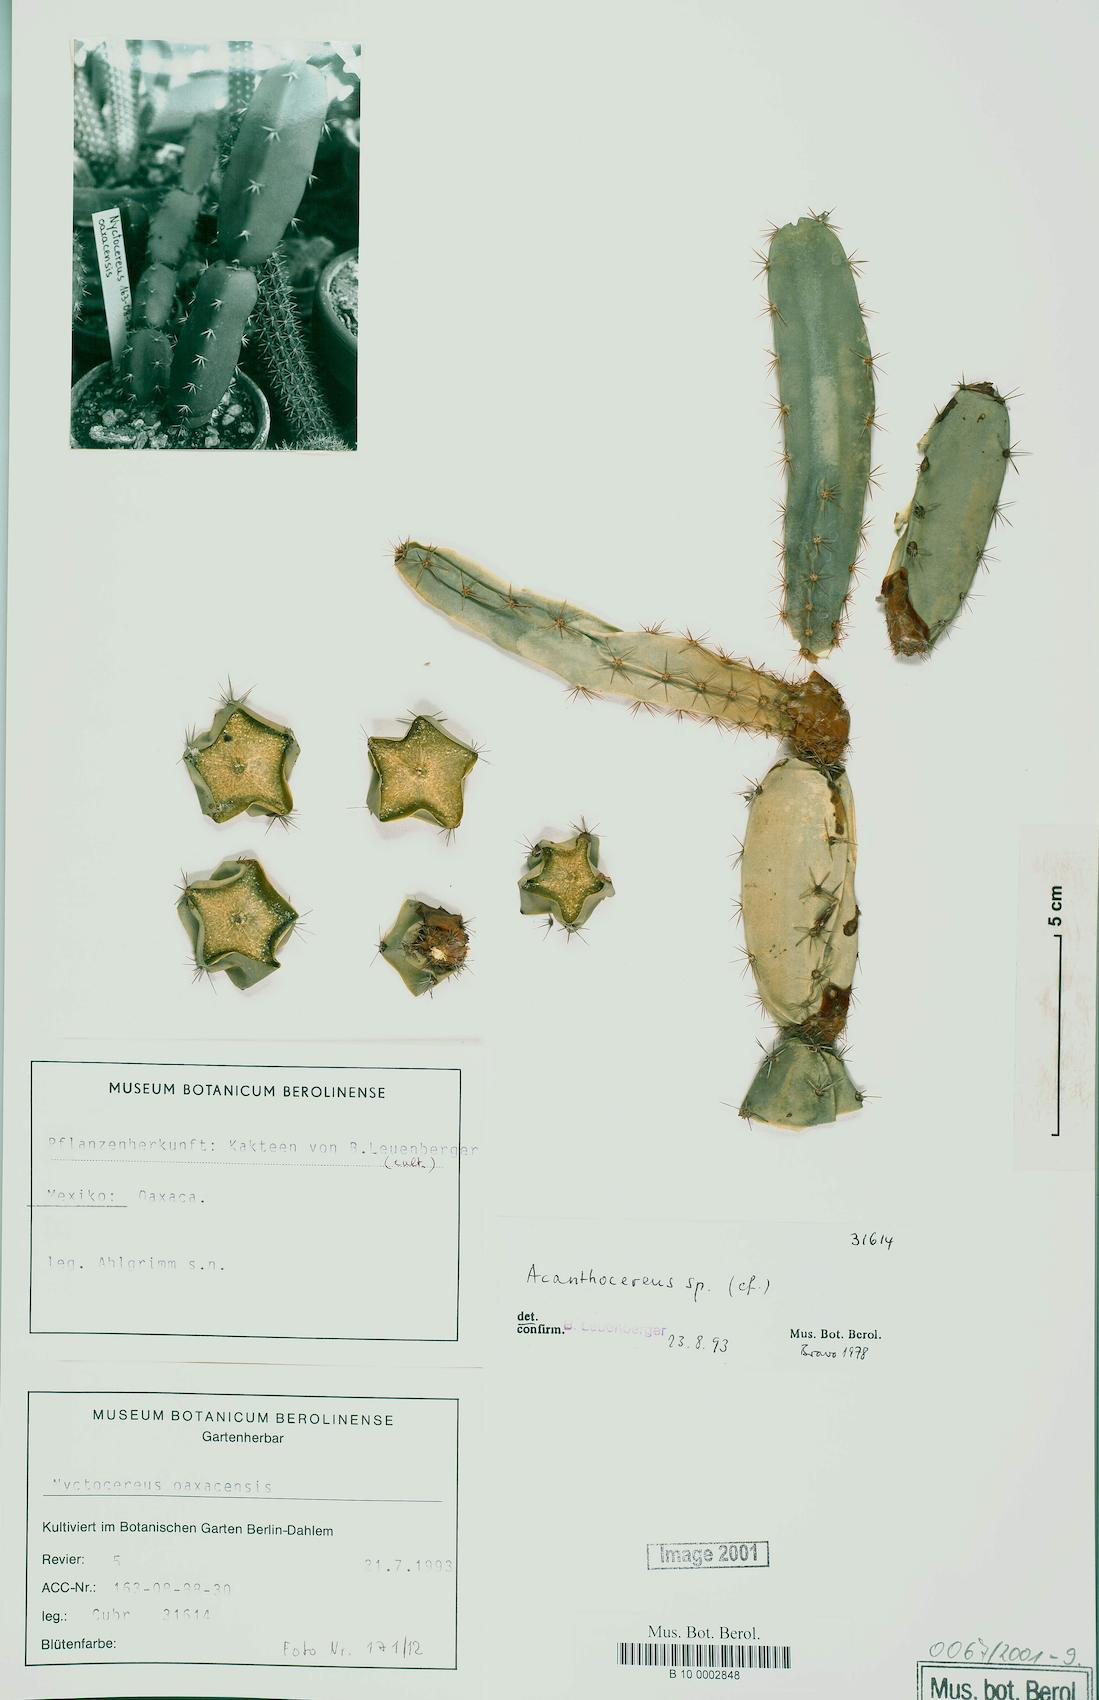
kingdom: Plantae
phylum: Tracheophyta
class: Magnoliopsida
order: Caryophyllales
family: Cactaceae
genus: Acanthocereus
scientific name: Acanthocereus
